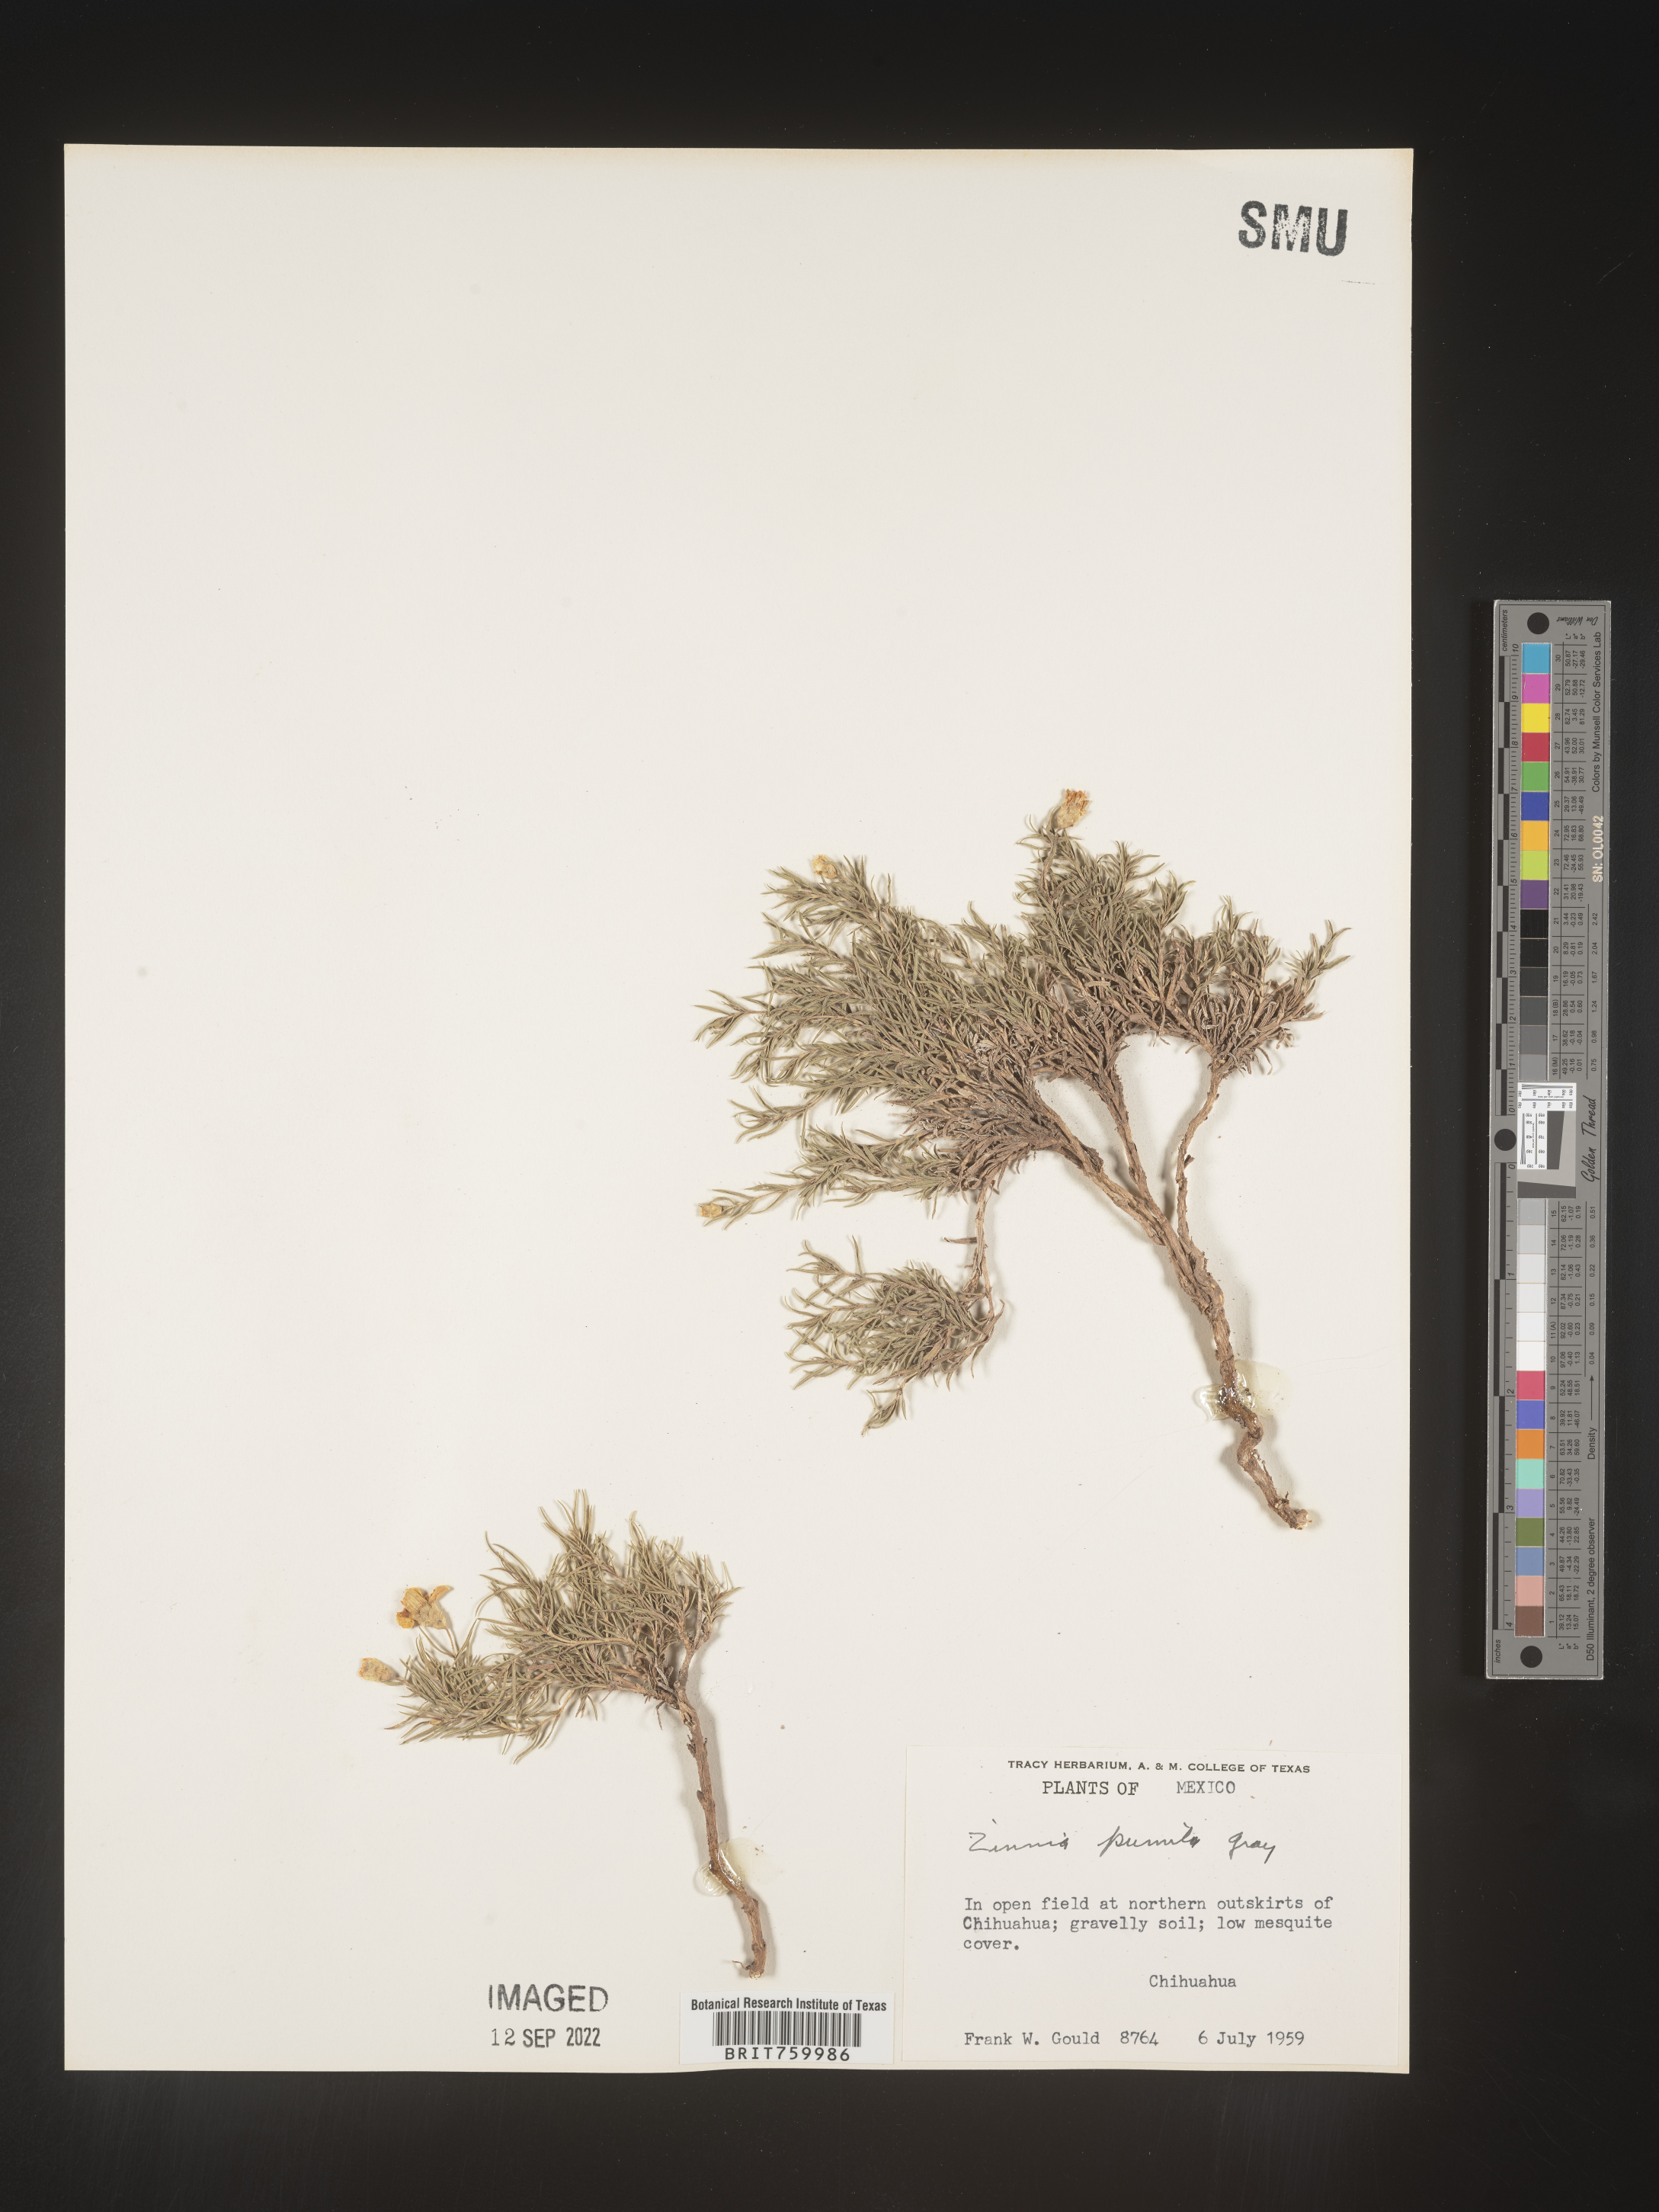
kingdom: Plantae
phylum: Tracheophyta
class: Magnoliopsida
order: Asterales
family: Asteraceae
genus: Zinnia
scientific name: Zinnia
